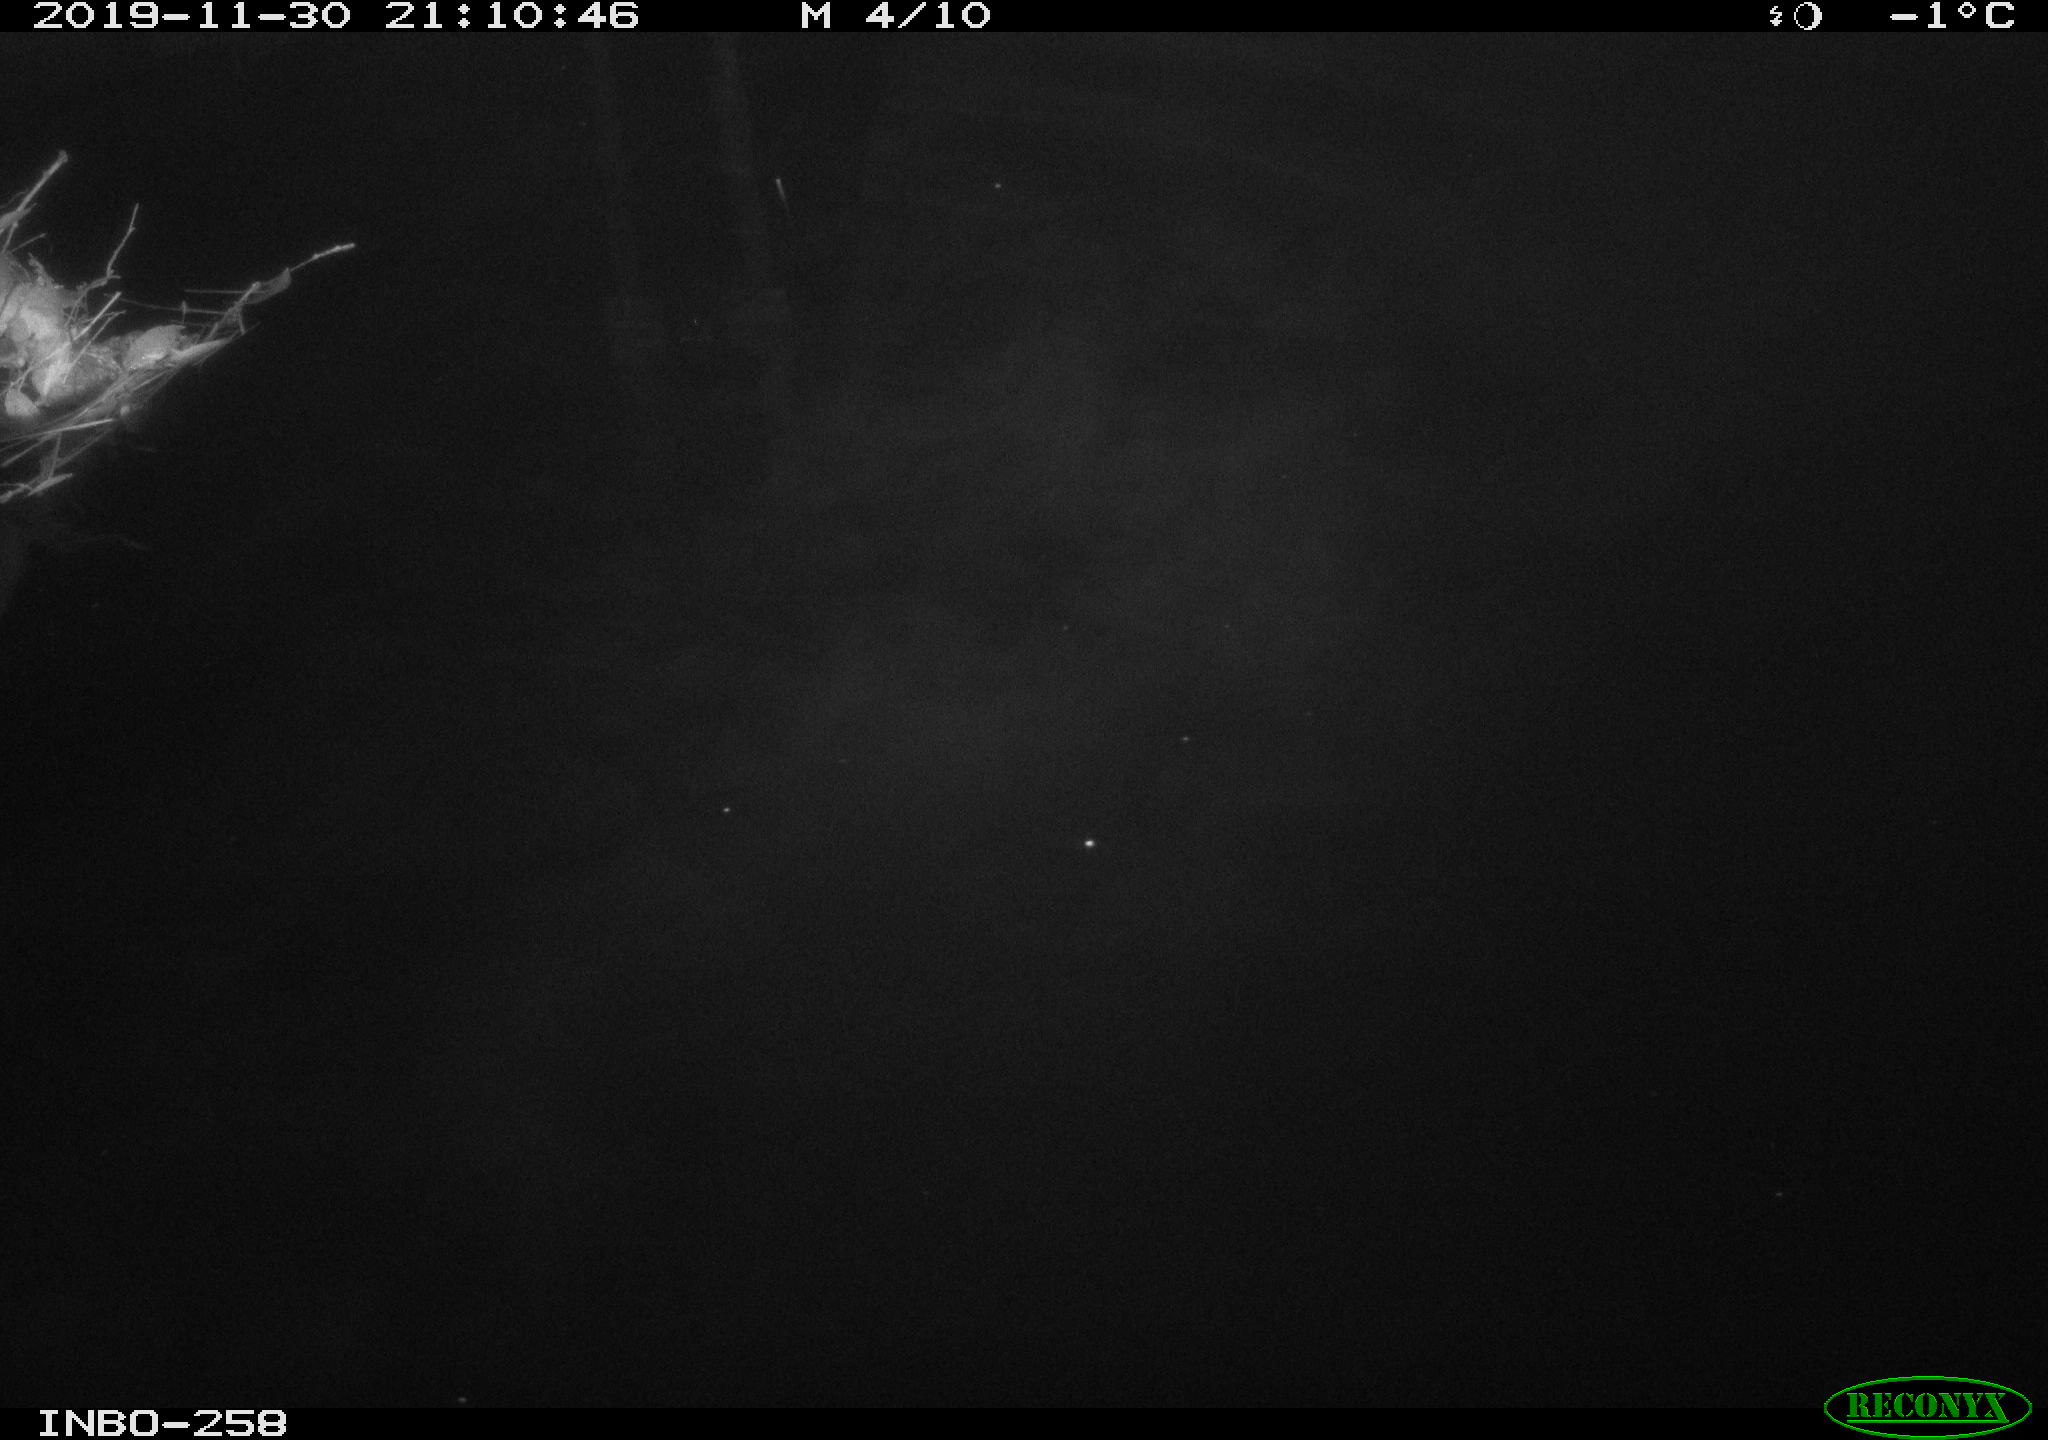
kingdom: Animalia
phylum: Chordata
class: Aves
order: Anseriformes
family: Anatidae
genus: Anas
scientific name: Anas platyrhynchos
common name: Mallard
